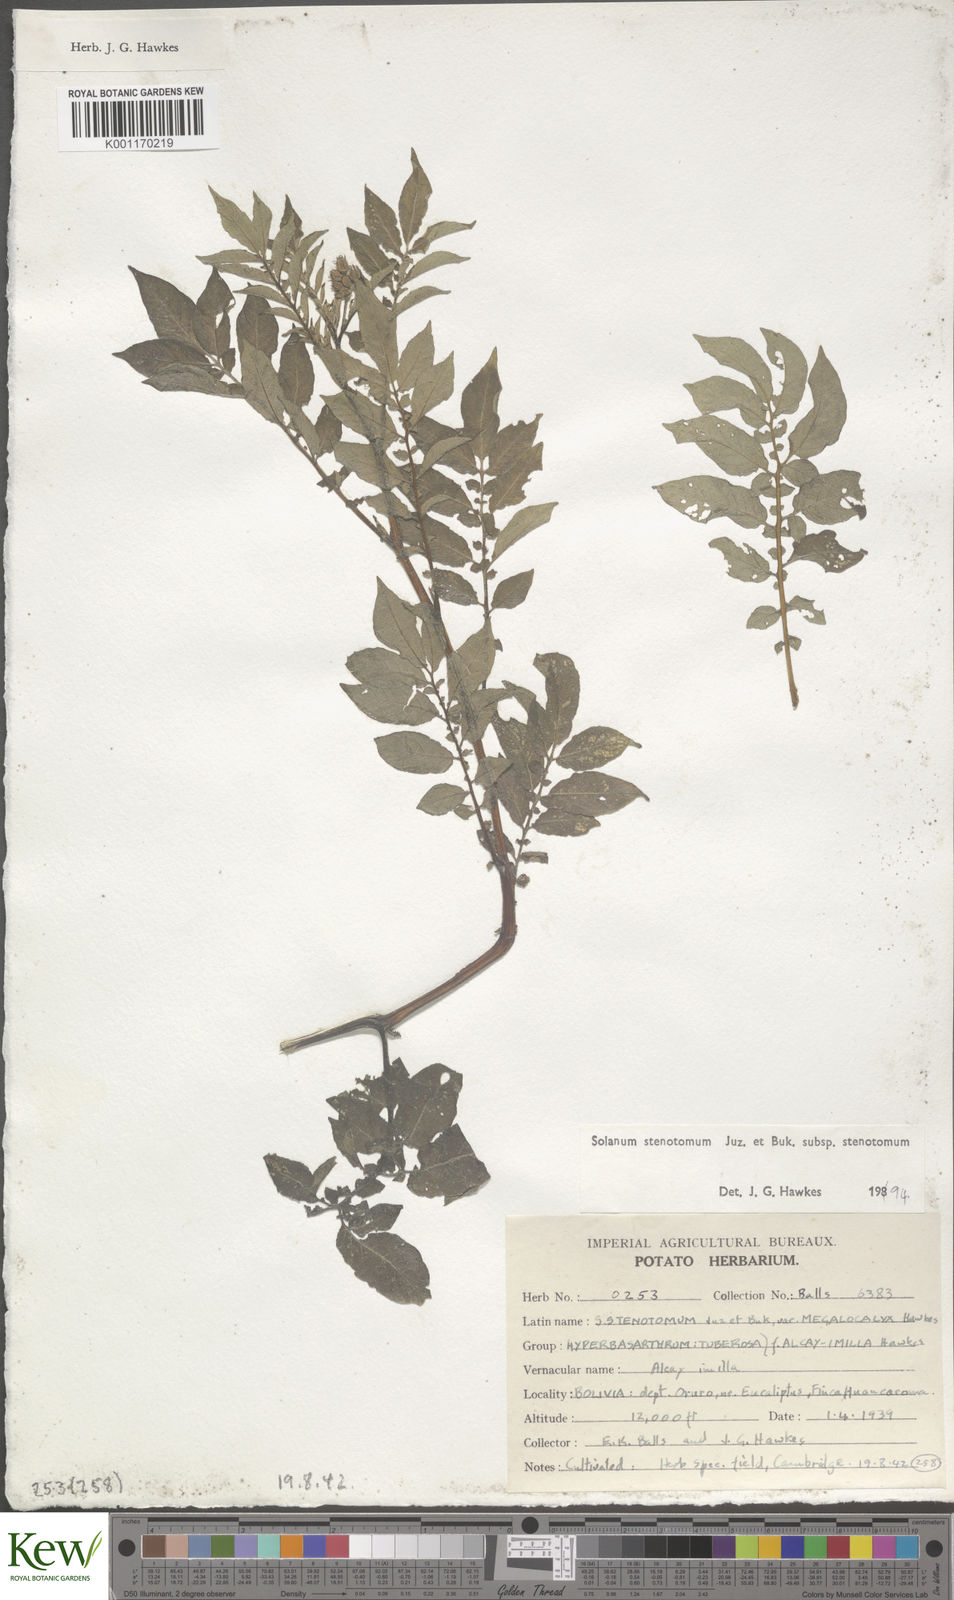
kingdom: Plantae
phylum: Tracheophyta
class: Magnoliopsida
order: Solanales
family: Solanaceae
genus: Solanum
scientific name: Solanum tuberosum
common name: Potato
